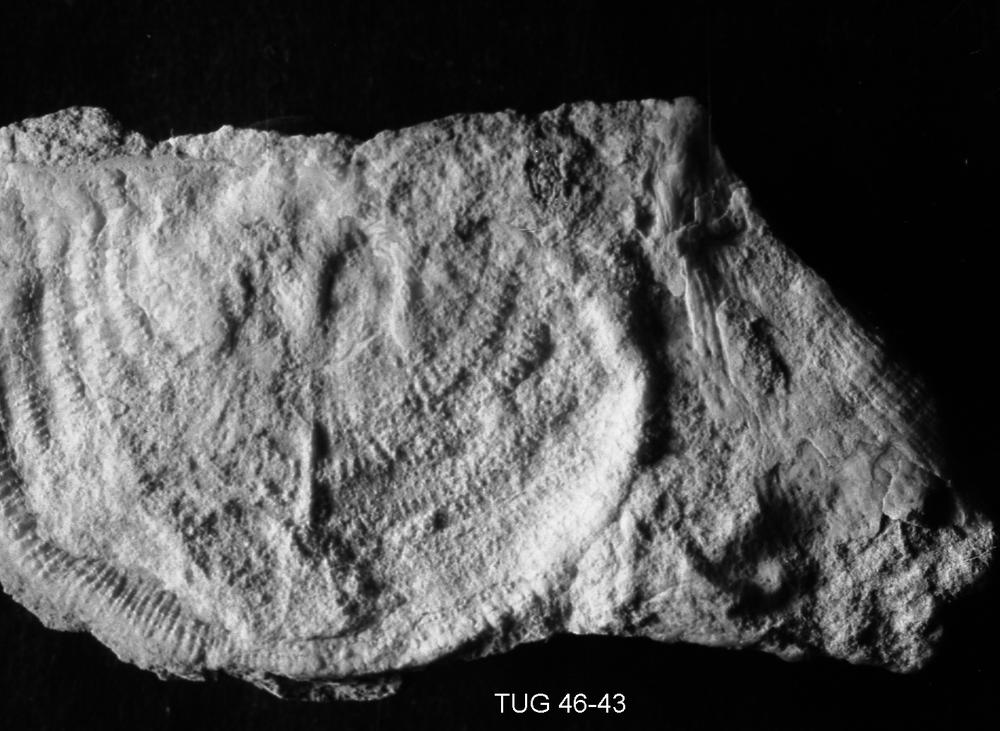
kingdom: Animalia
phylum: Brachiopoda
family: Strophomenidae
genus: Leptaena
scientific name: Leptaena
